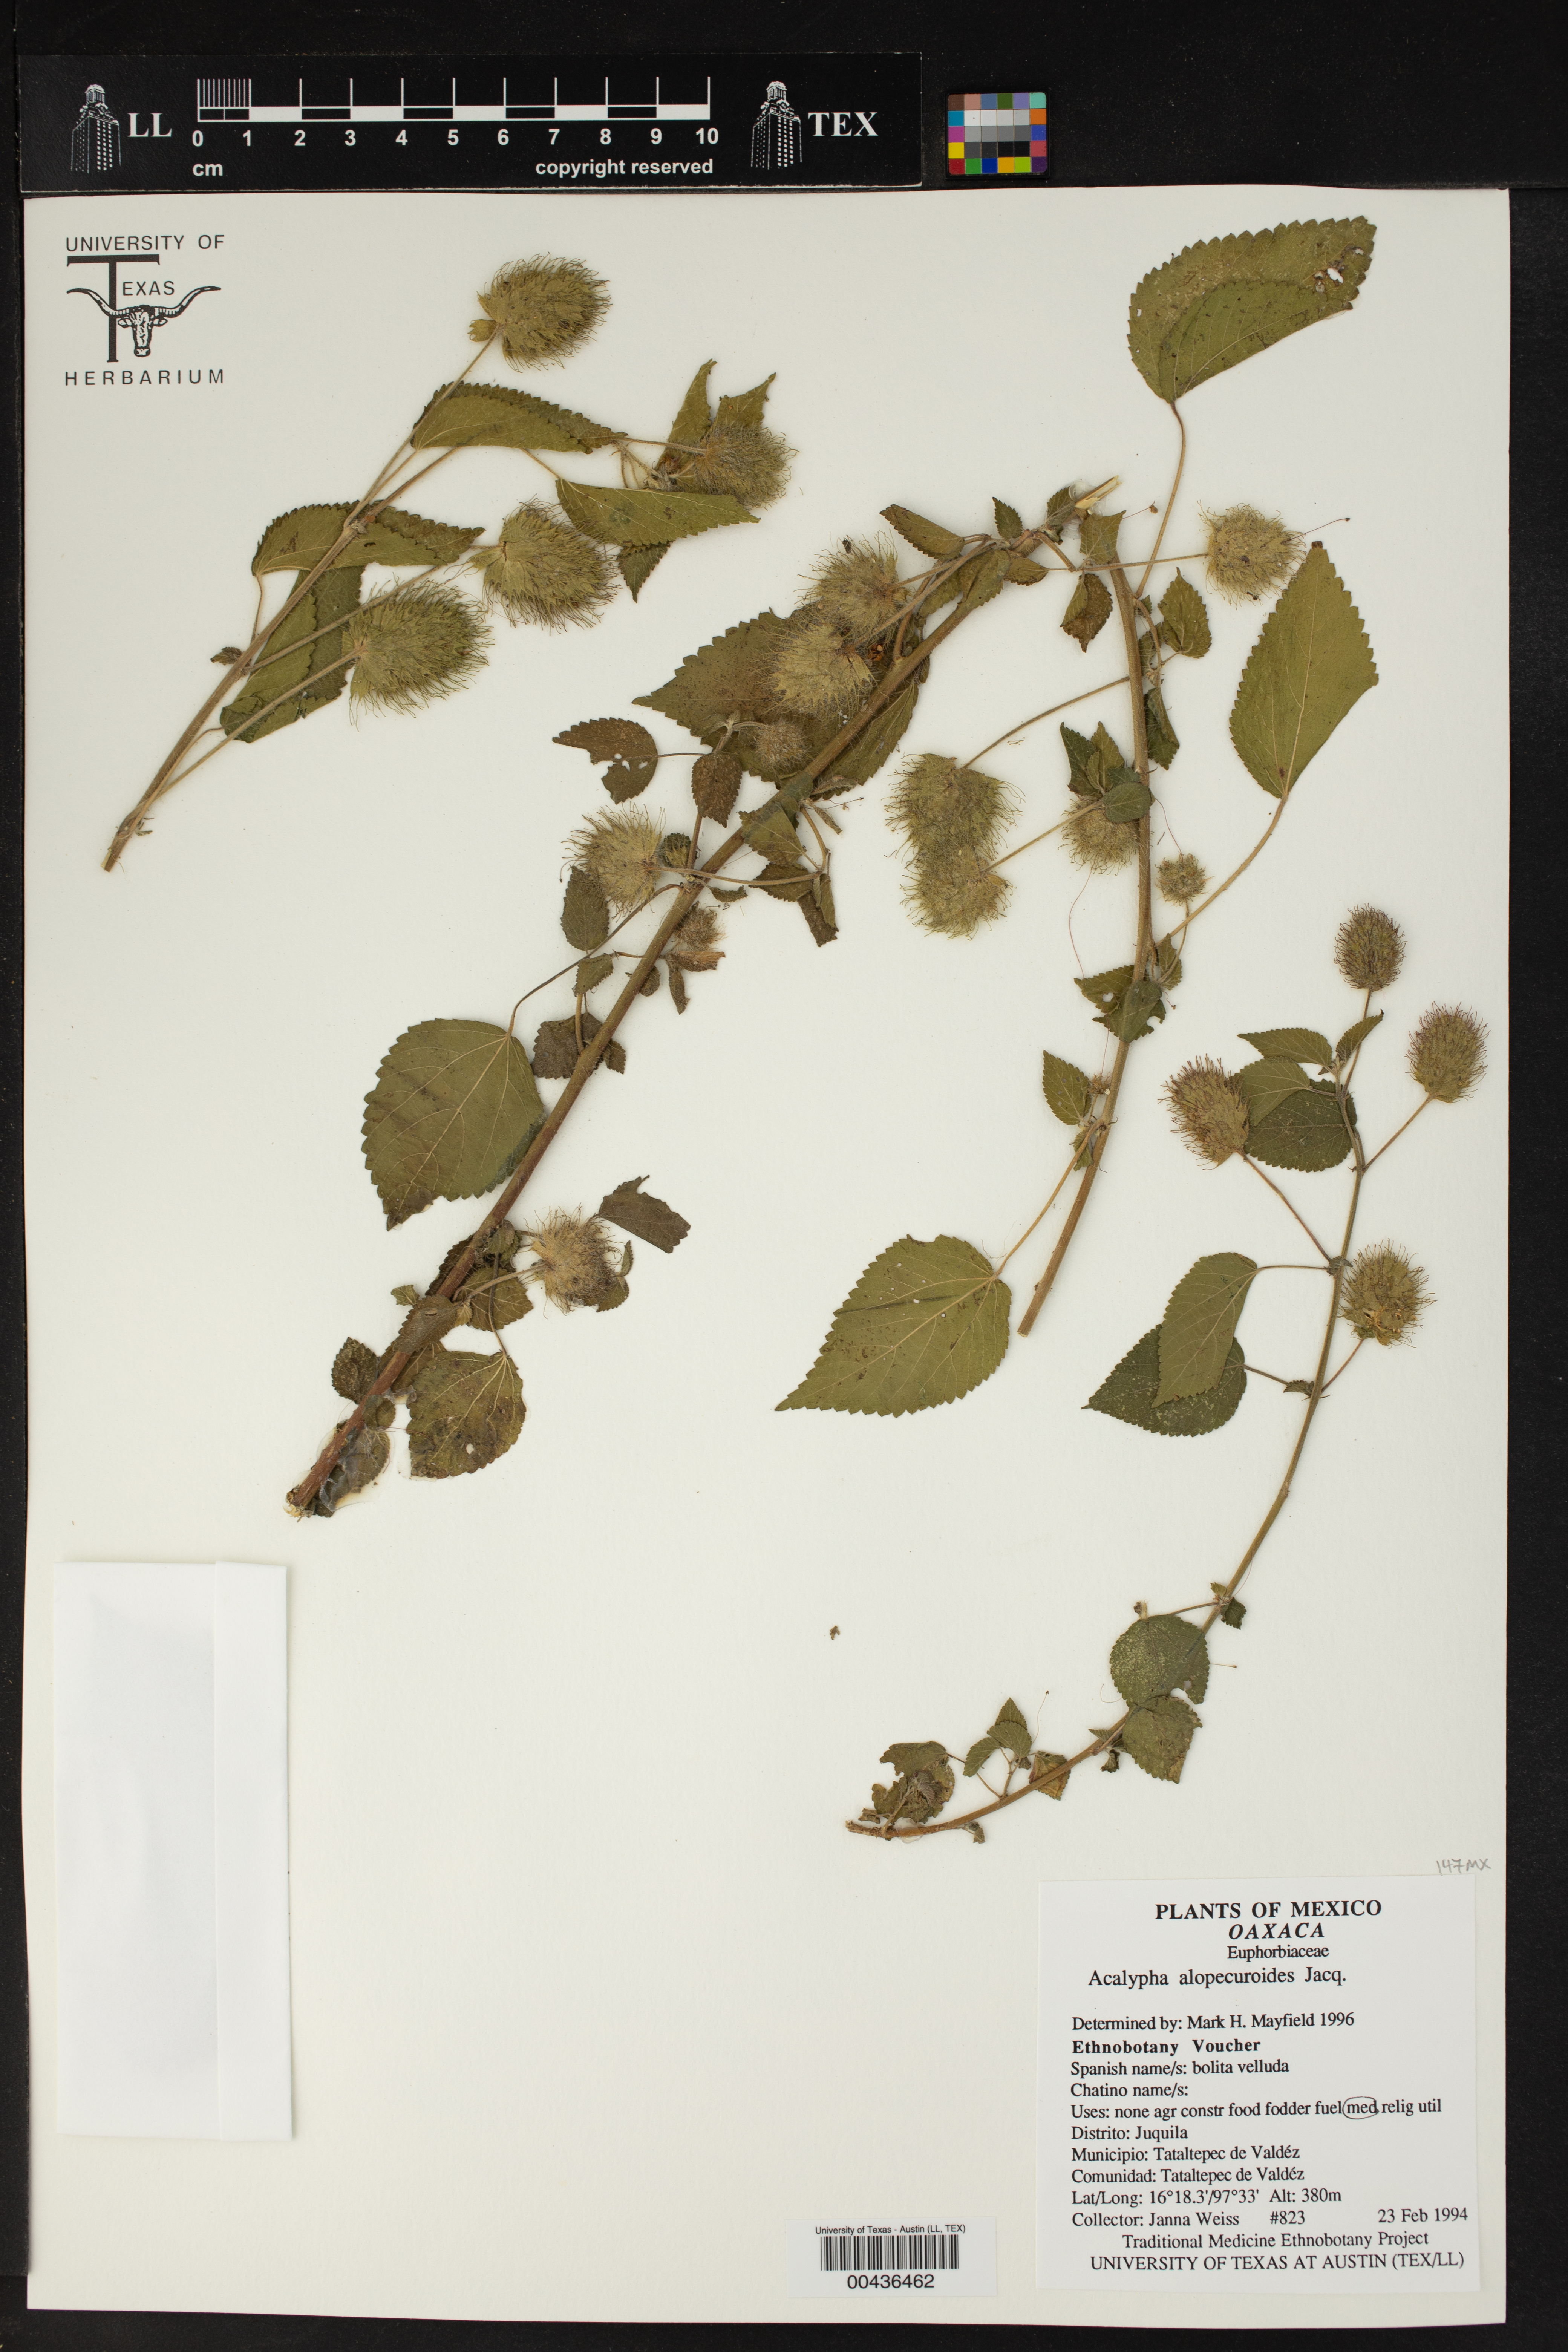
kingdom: Plantae
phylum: Tracheophyta
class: Magnoliopsida
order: Malpighiales
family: Euphorbiaceae
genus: Acalypha
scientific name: Acalypha alopecuroidea
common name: Foxtail copperleaf
